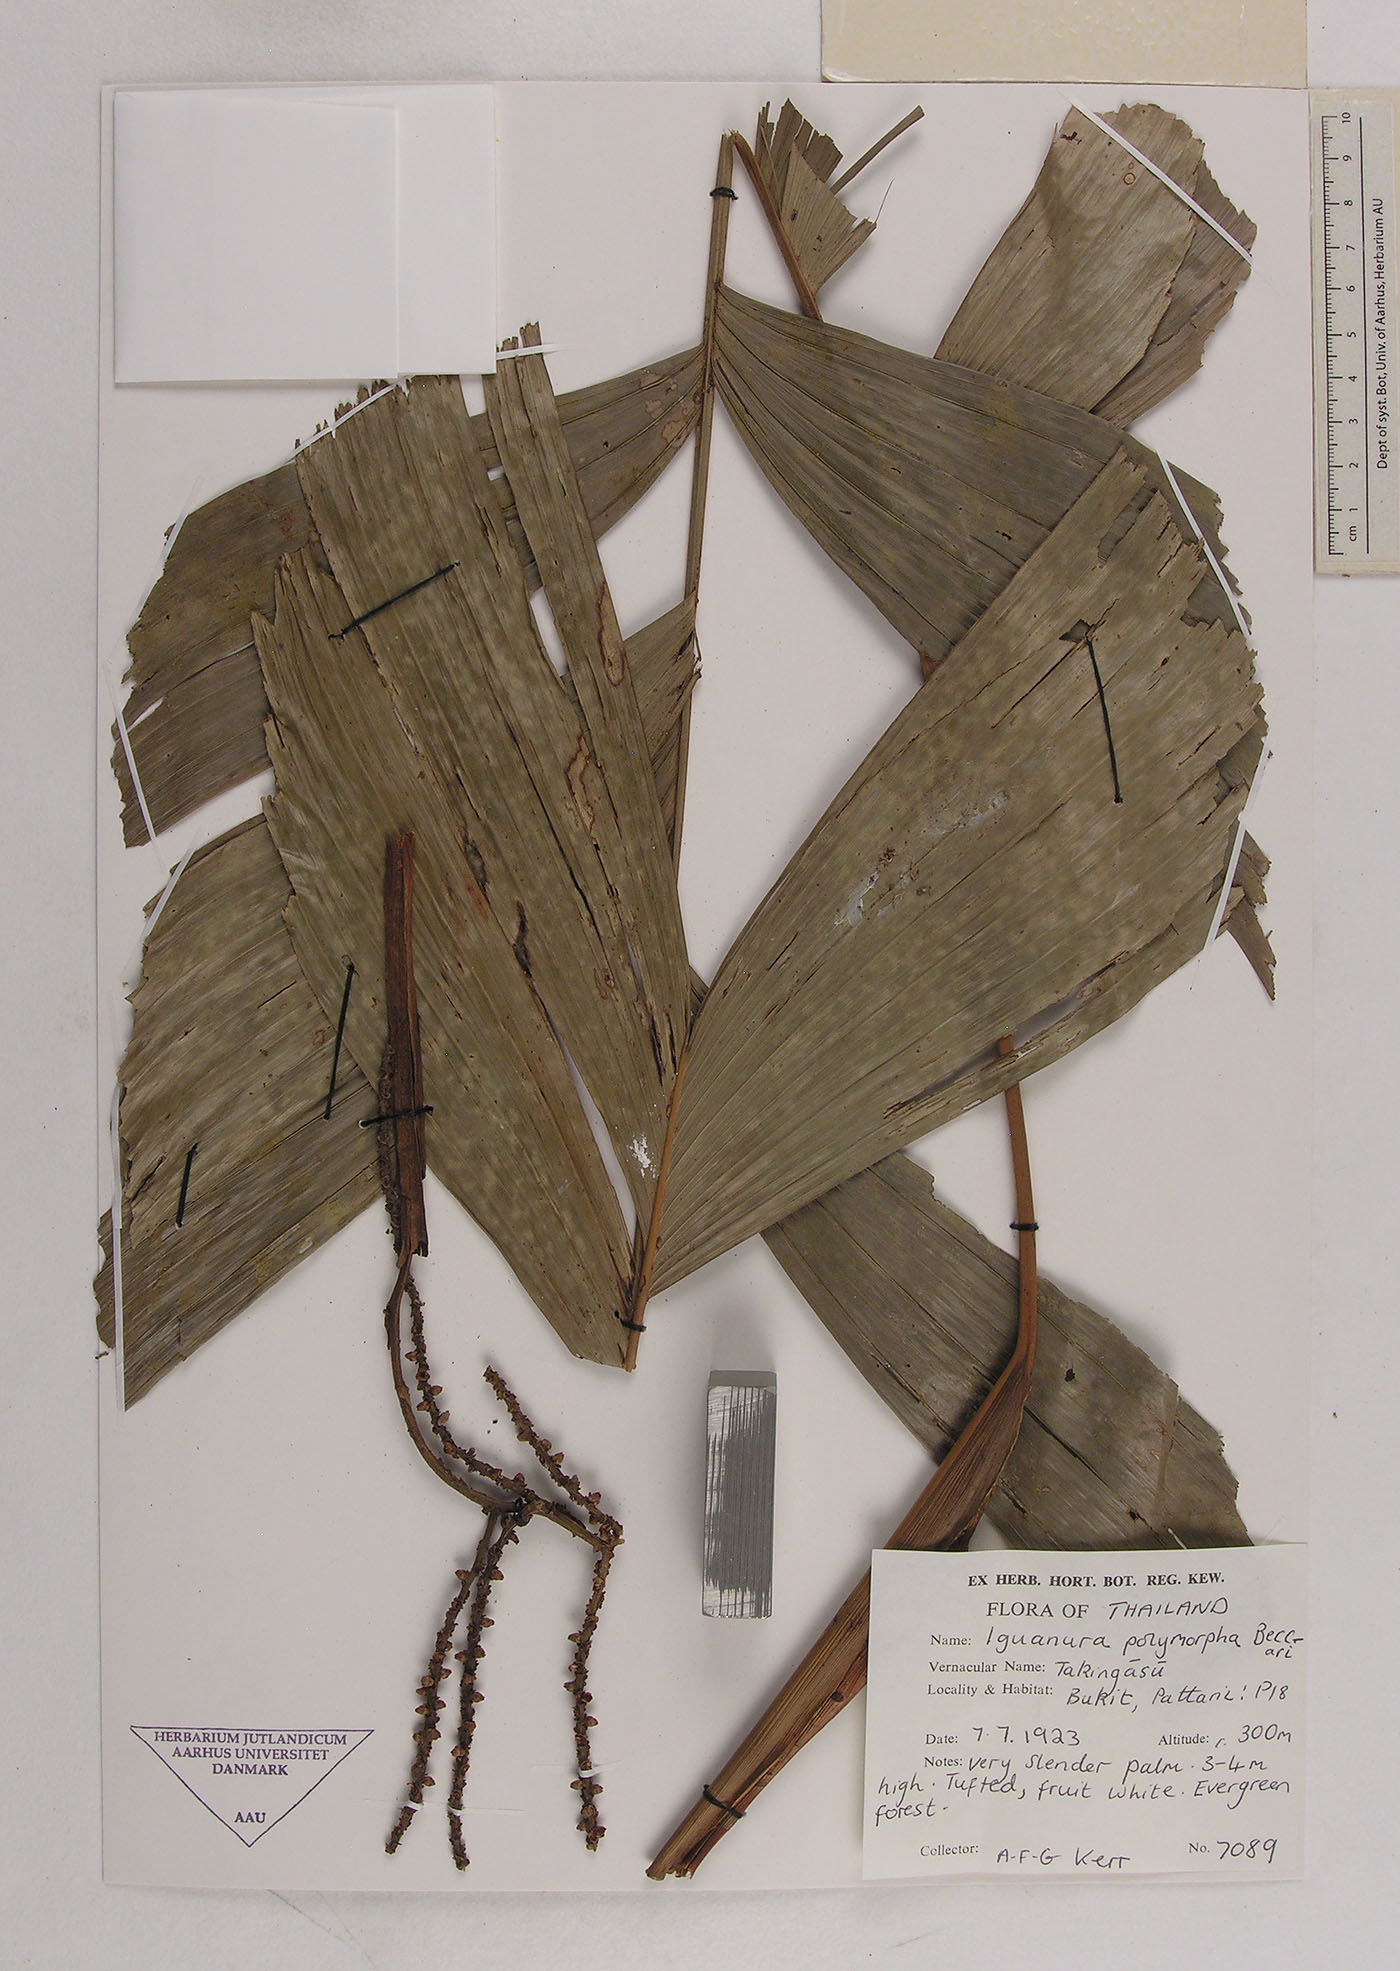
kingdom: Plantae
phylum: Tracheophyta
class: Liliopsida
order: Arecales
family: Arecaceae
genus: Iguanura
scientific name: Iguanura polymorpha
